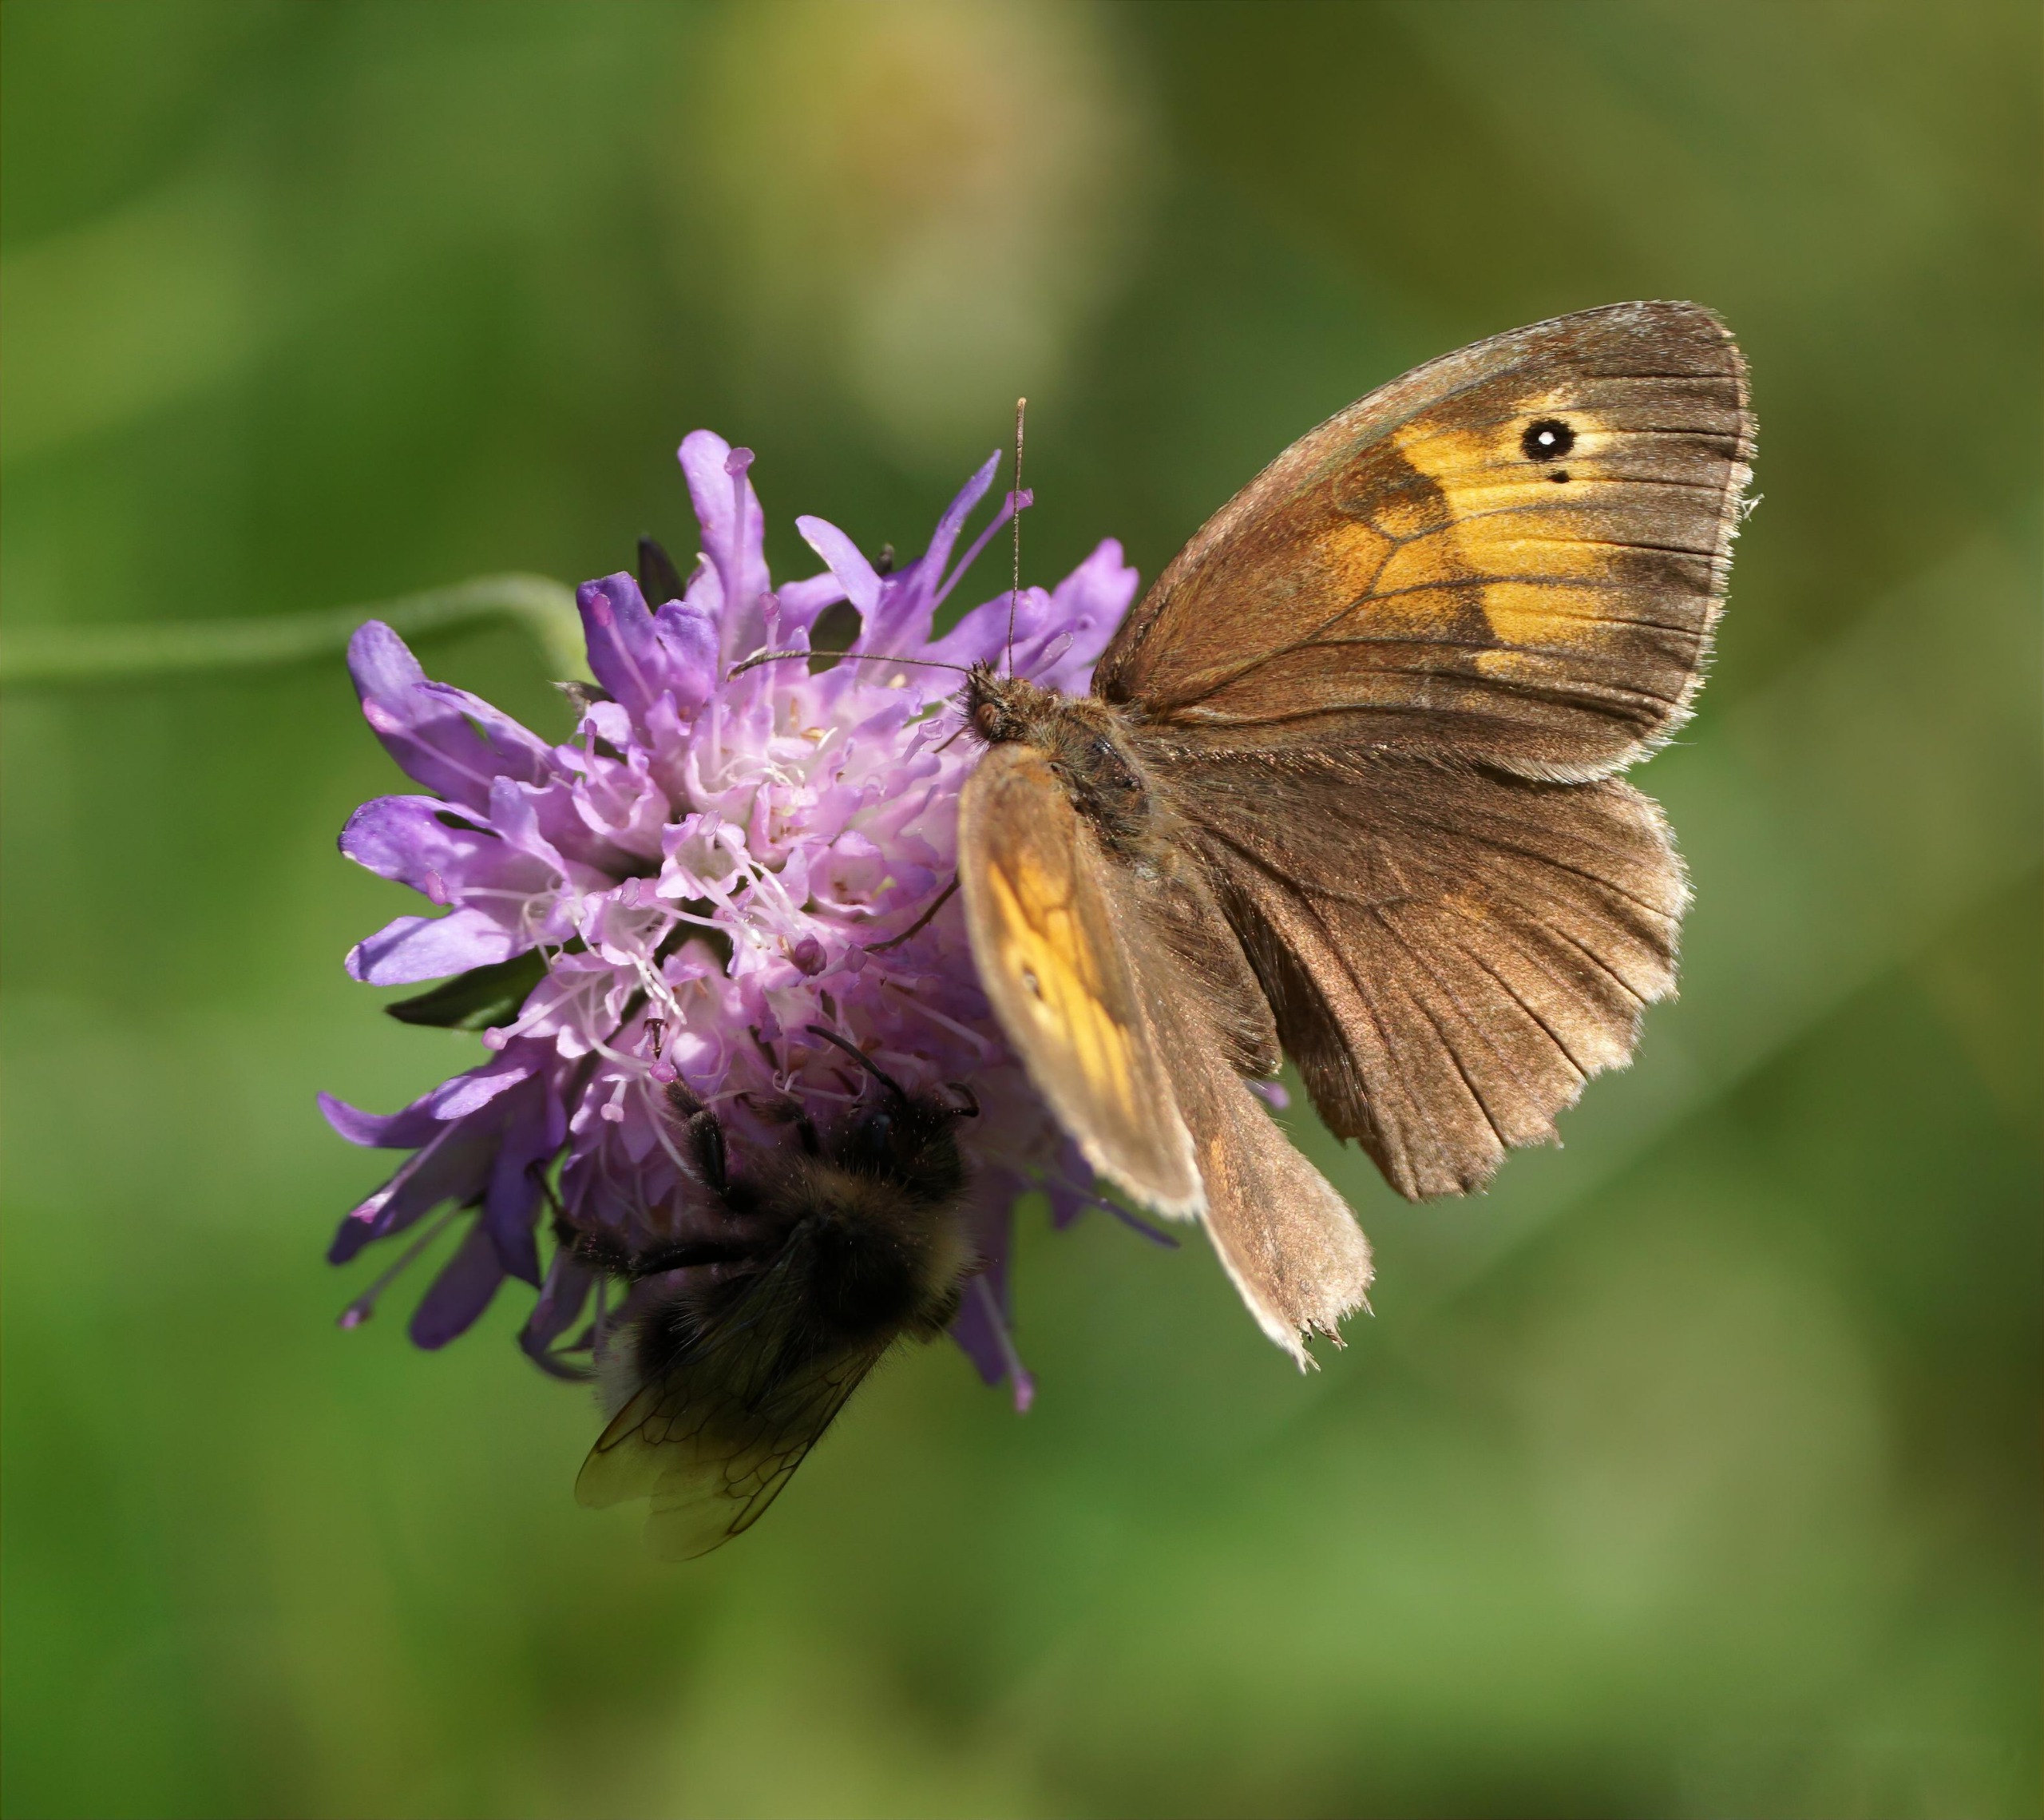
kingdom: Animalia
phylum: Arthropoda
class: Insecta
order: Lepidoptera
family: Nymphalidae
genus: Maniola
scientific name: Maniola jurtina
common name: Græsrandøje
